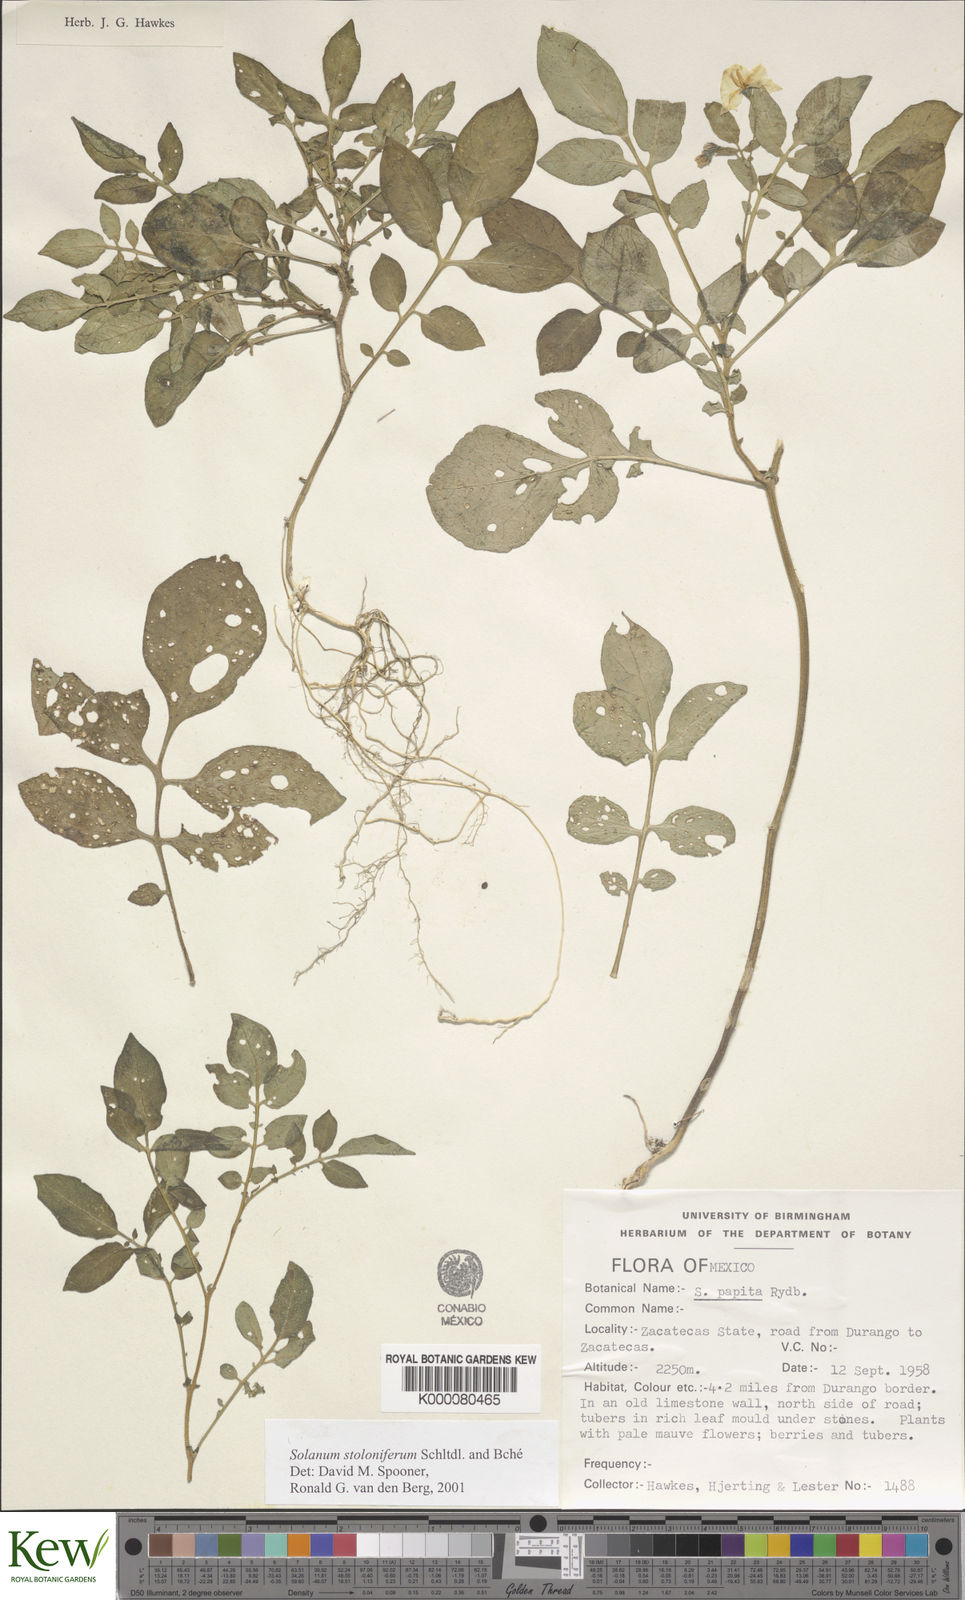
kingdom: Plantae
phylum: Tracheophyta
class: Magnoliopsida
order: Solanales
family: Solanaceae
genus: Solanum
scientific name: Solanum stoloniferum
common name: Fendler's nighshade
